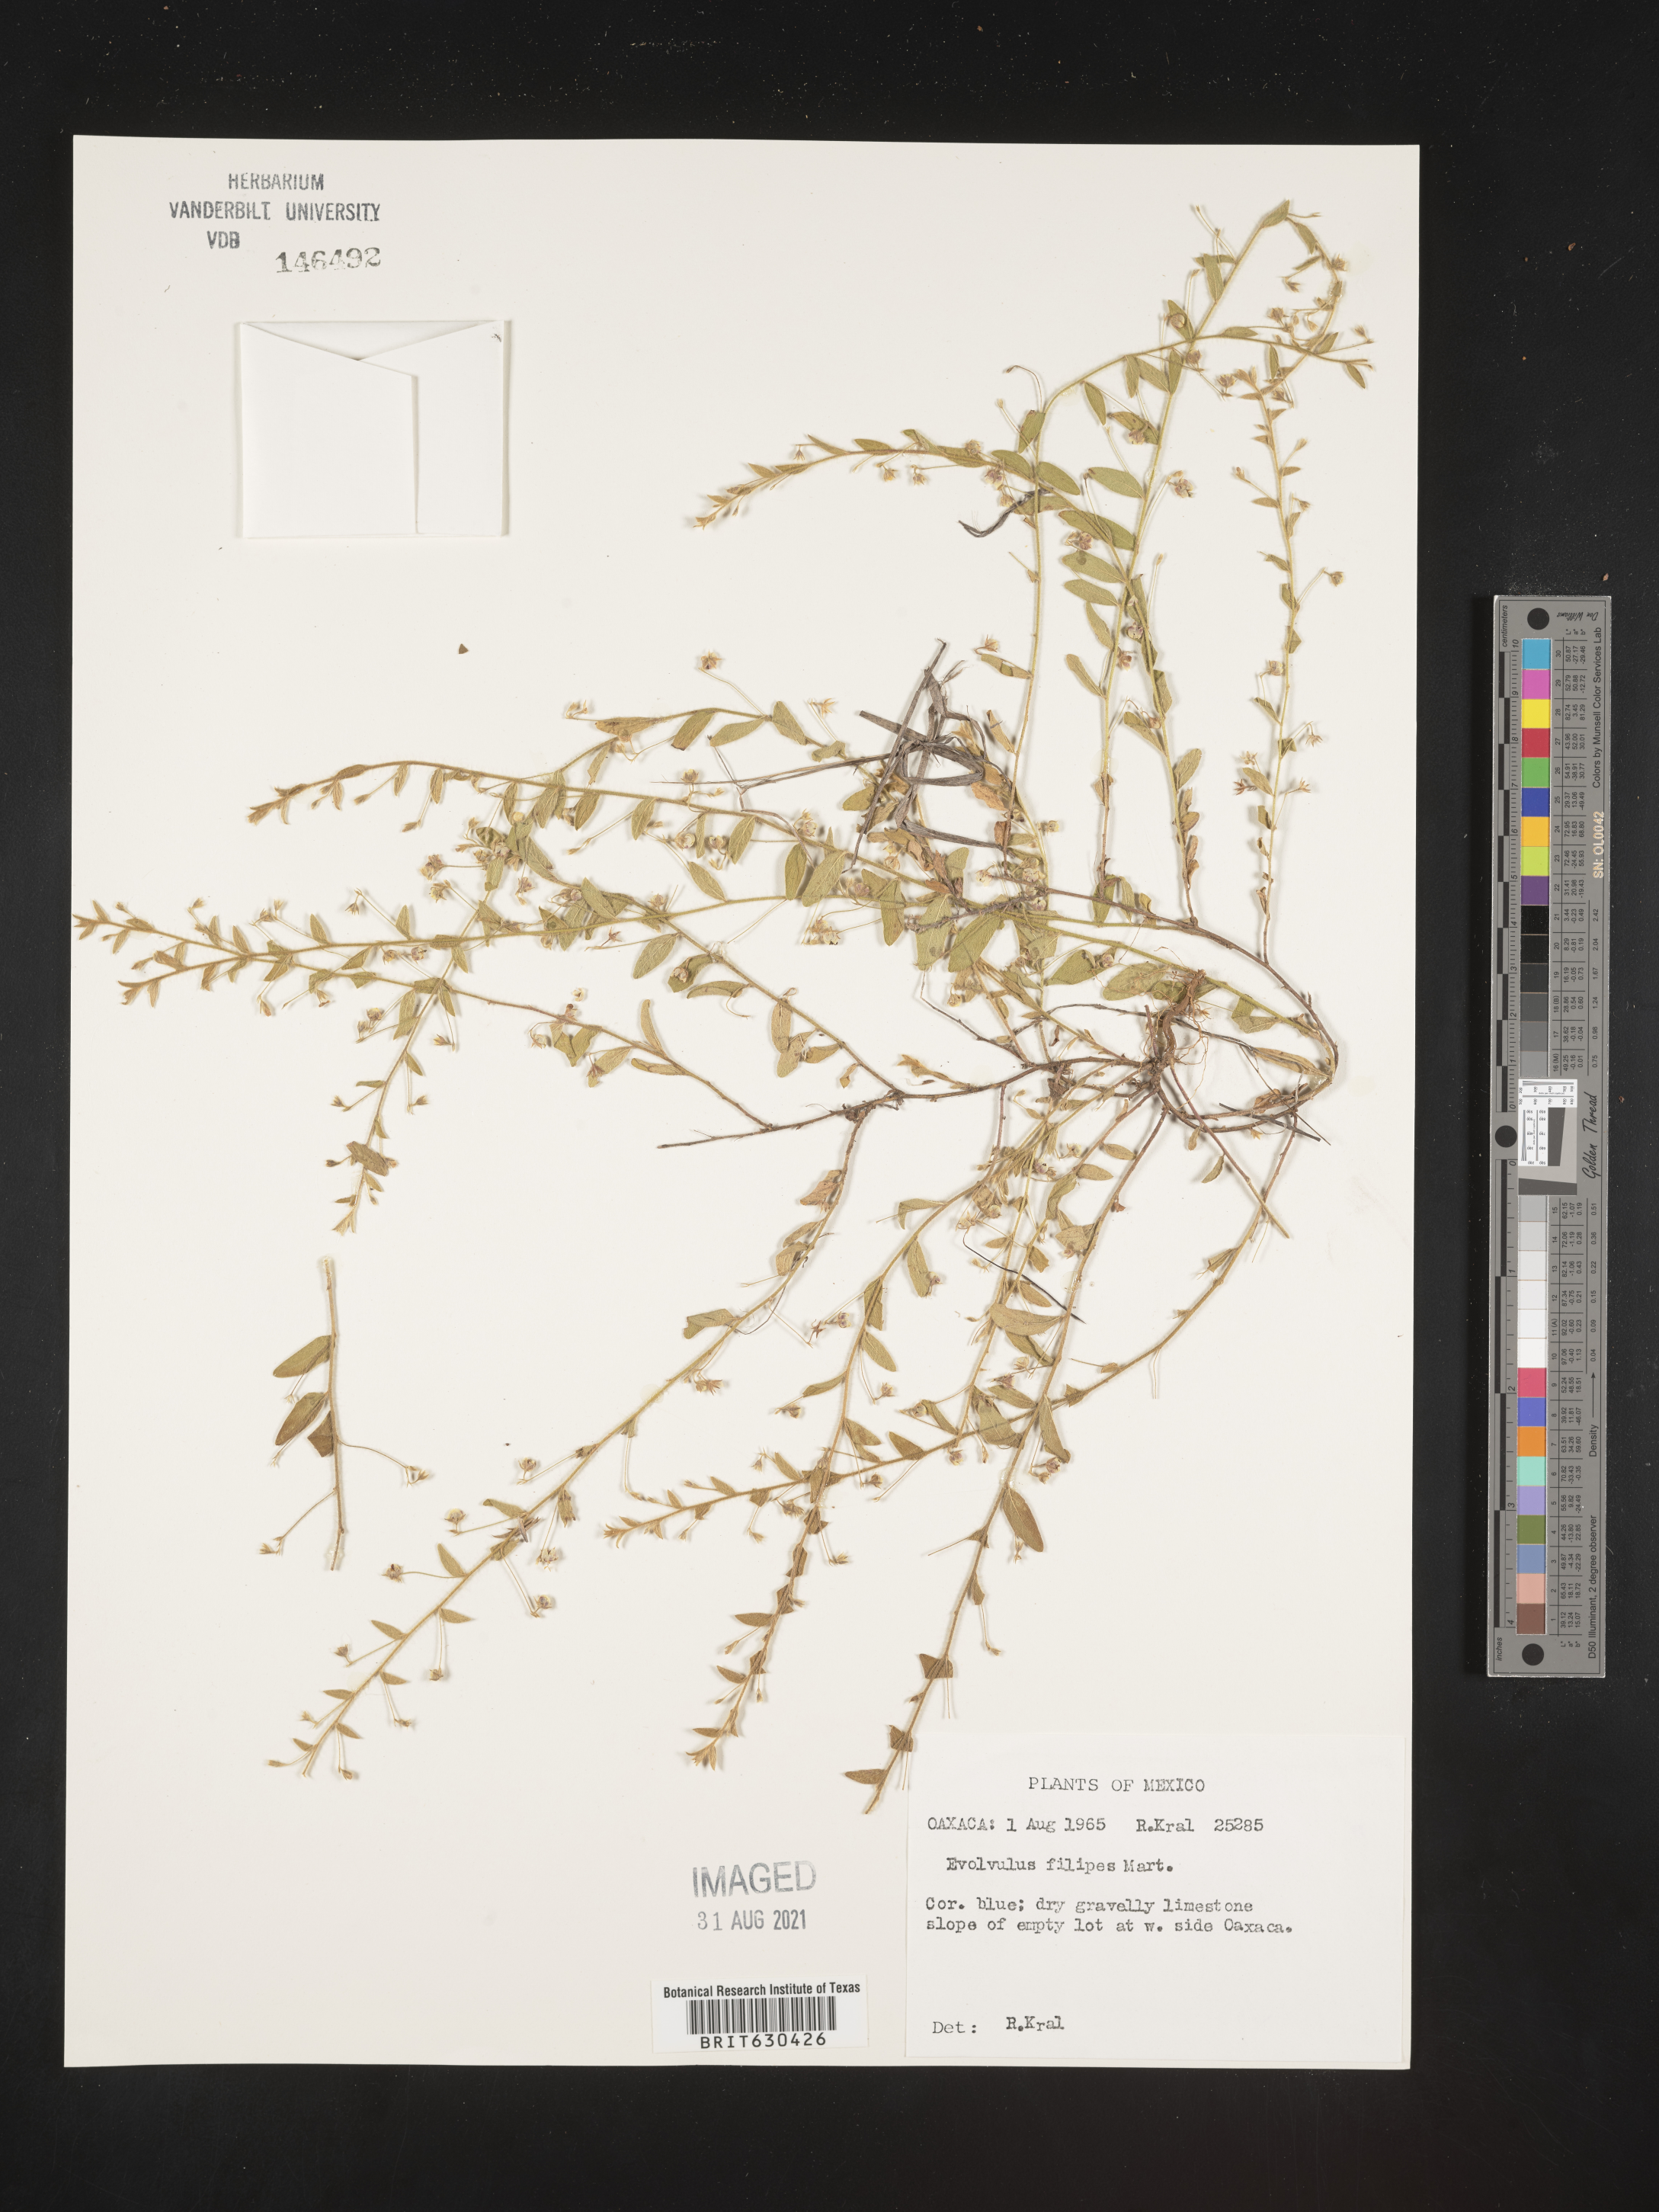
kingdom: Plantae
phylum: Tracheophyta
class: Magnoliopsida
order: Solanales
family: Convolvulaceae
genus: Evolvulus
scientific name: Evolvulus
